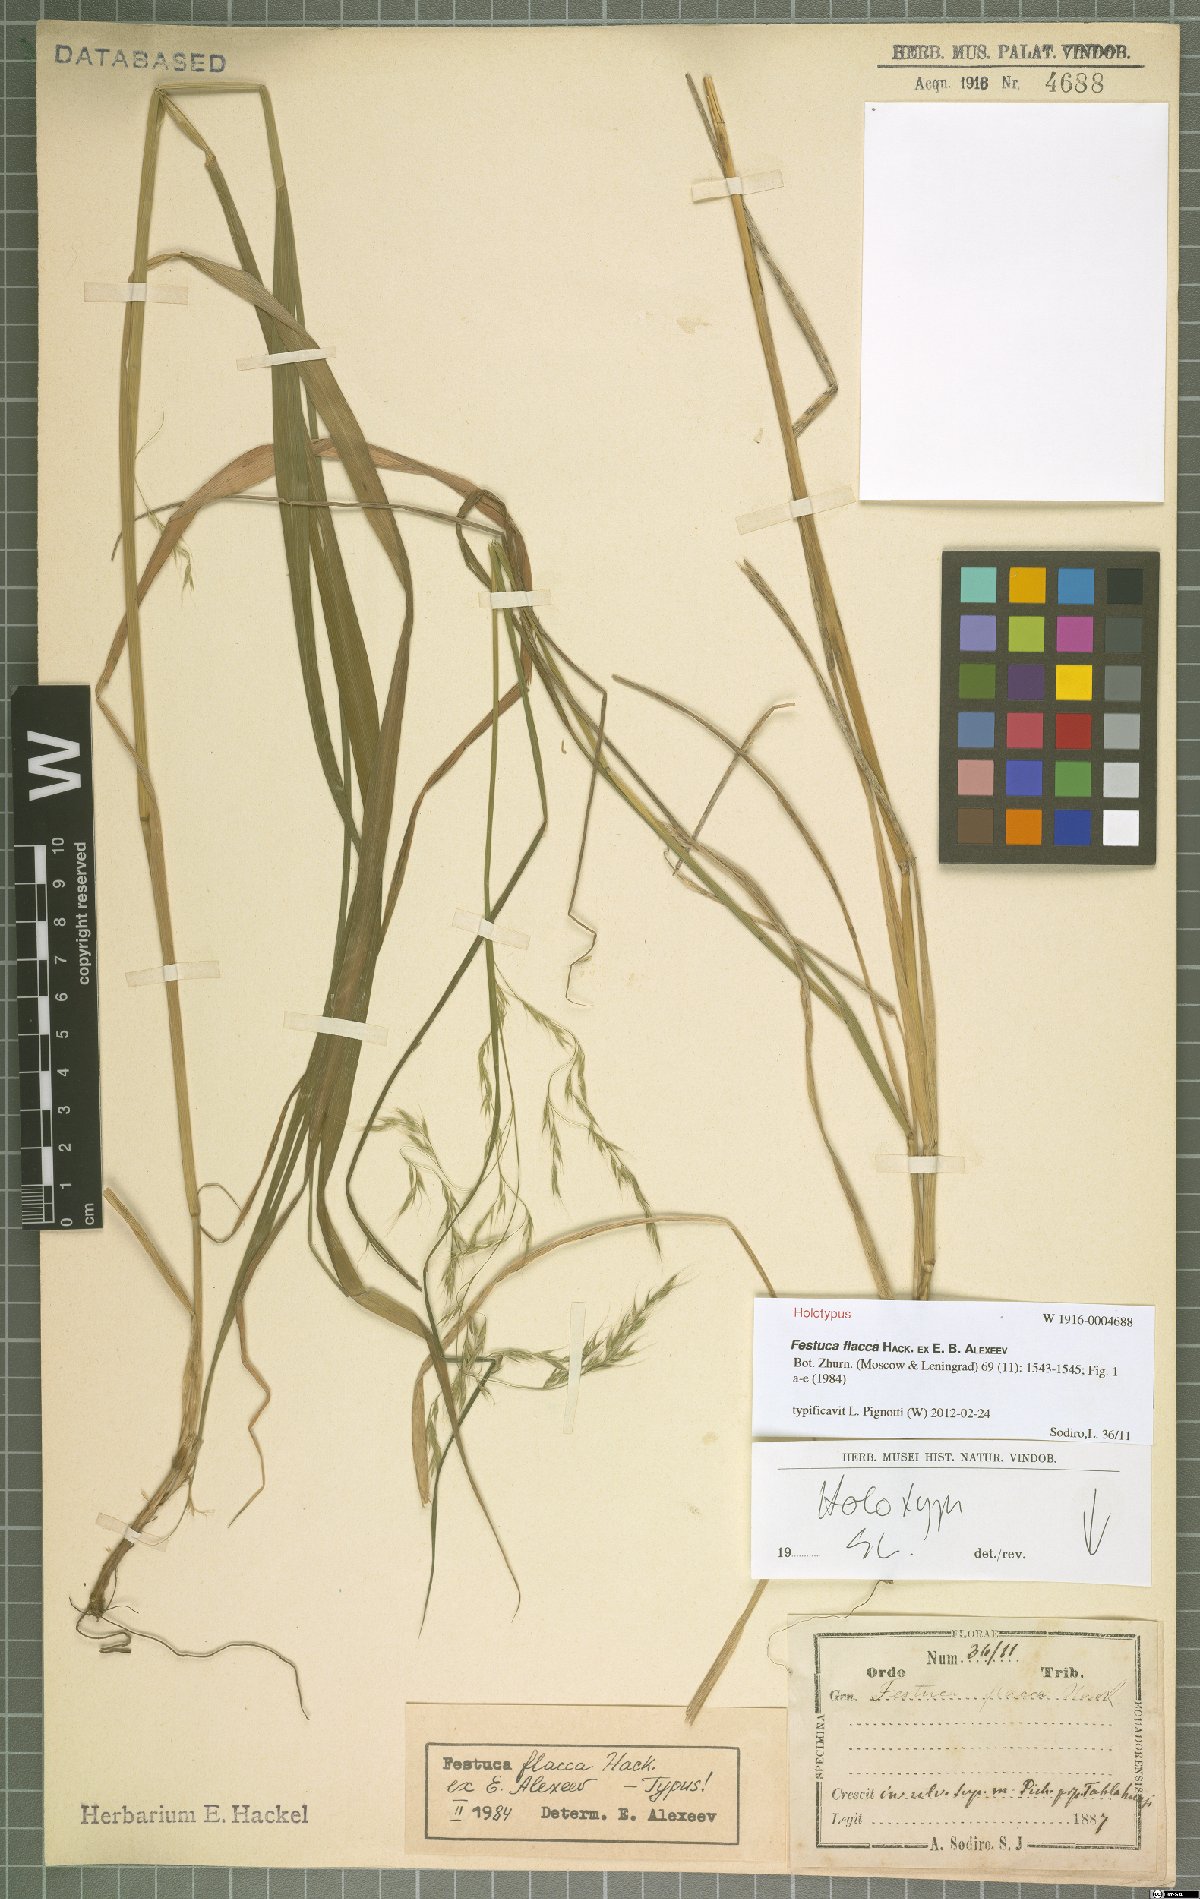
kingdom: Plantae
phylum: Tracheophyta
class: Liliopsida
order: Poales
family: Poaceae
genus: Festuca
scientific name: Festuca flacca
